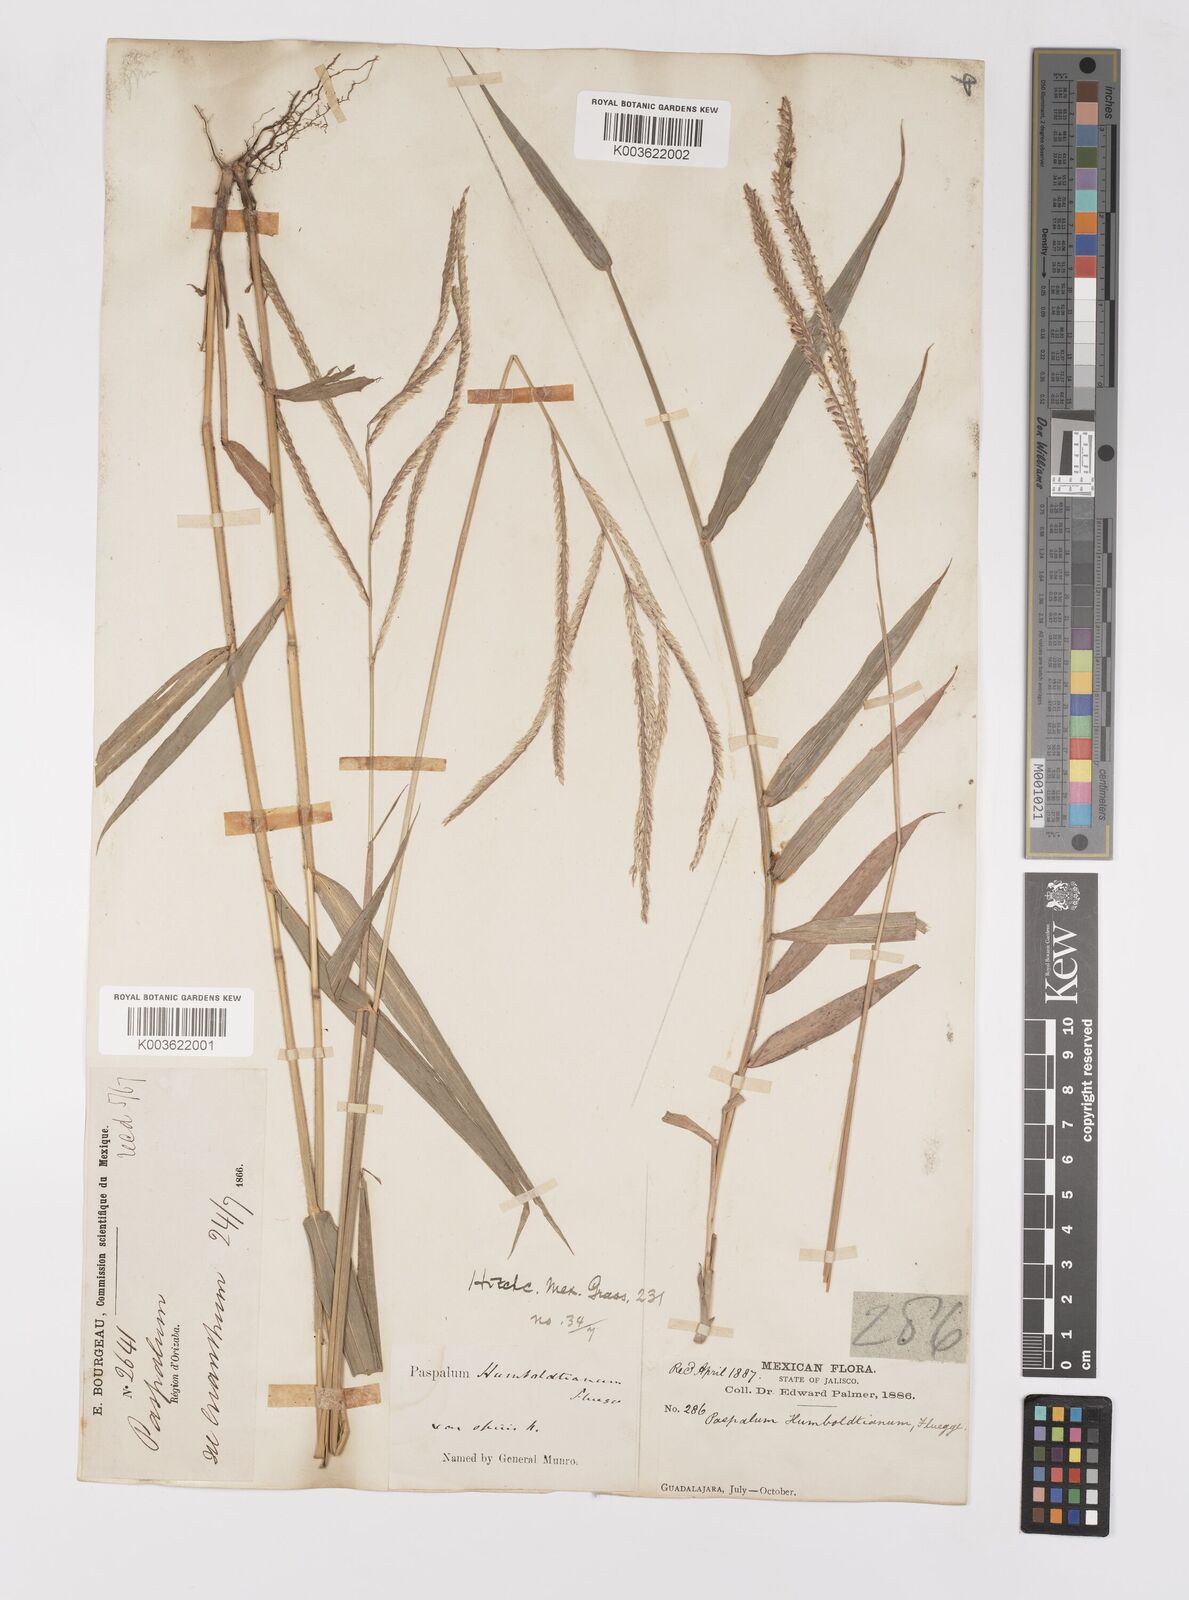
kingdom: Plantae
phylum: Tracheophyta
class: Liliopsida
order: Poales
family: Poaceae
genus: Paspalum
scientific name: Paspalum humboldtianum
